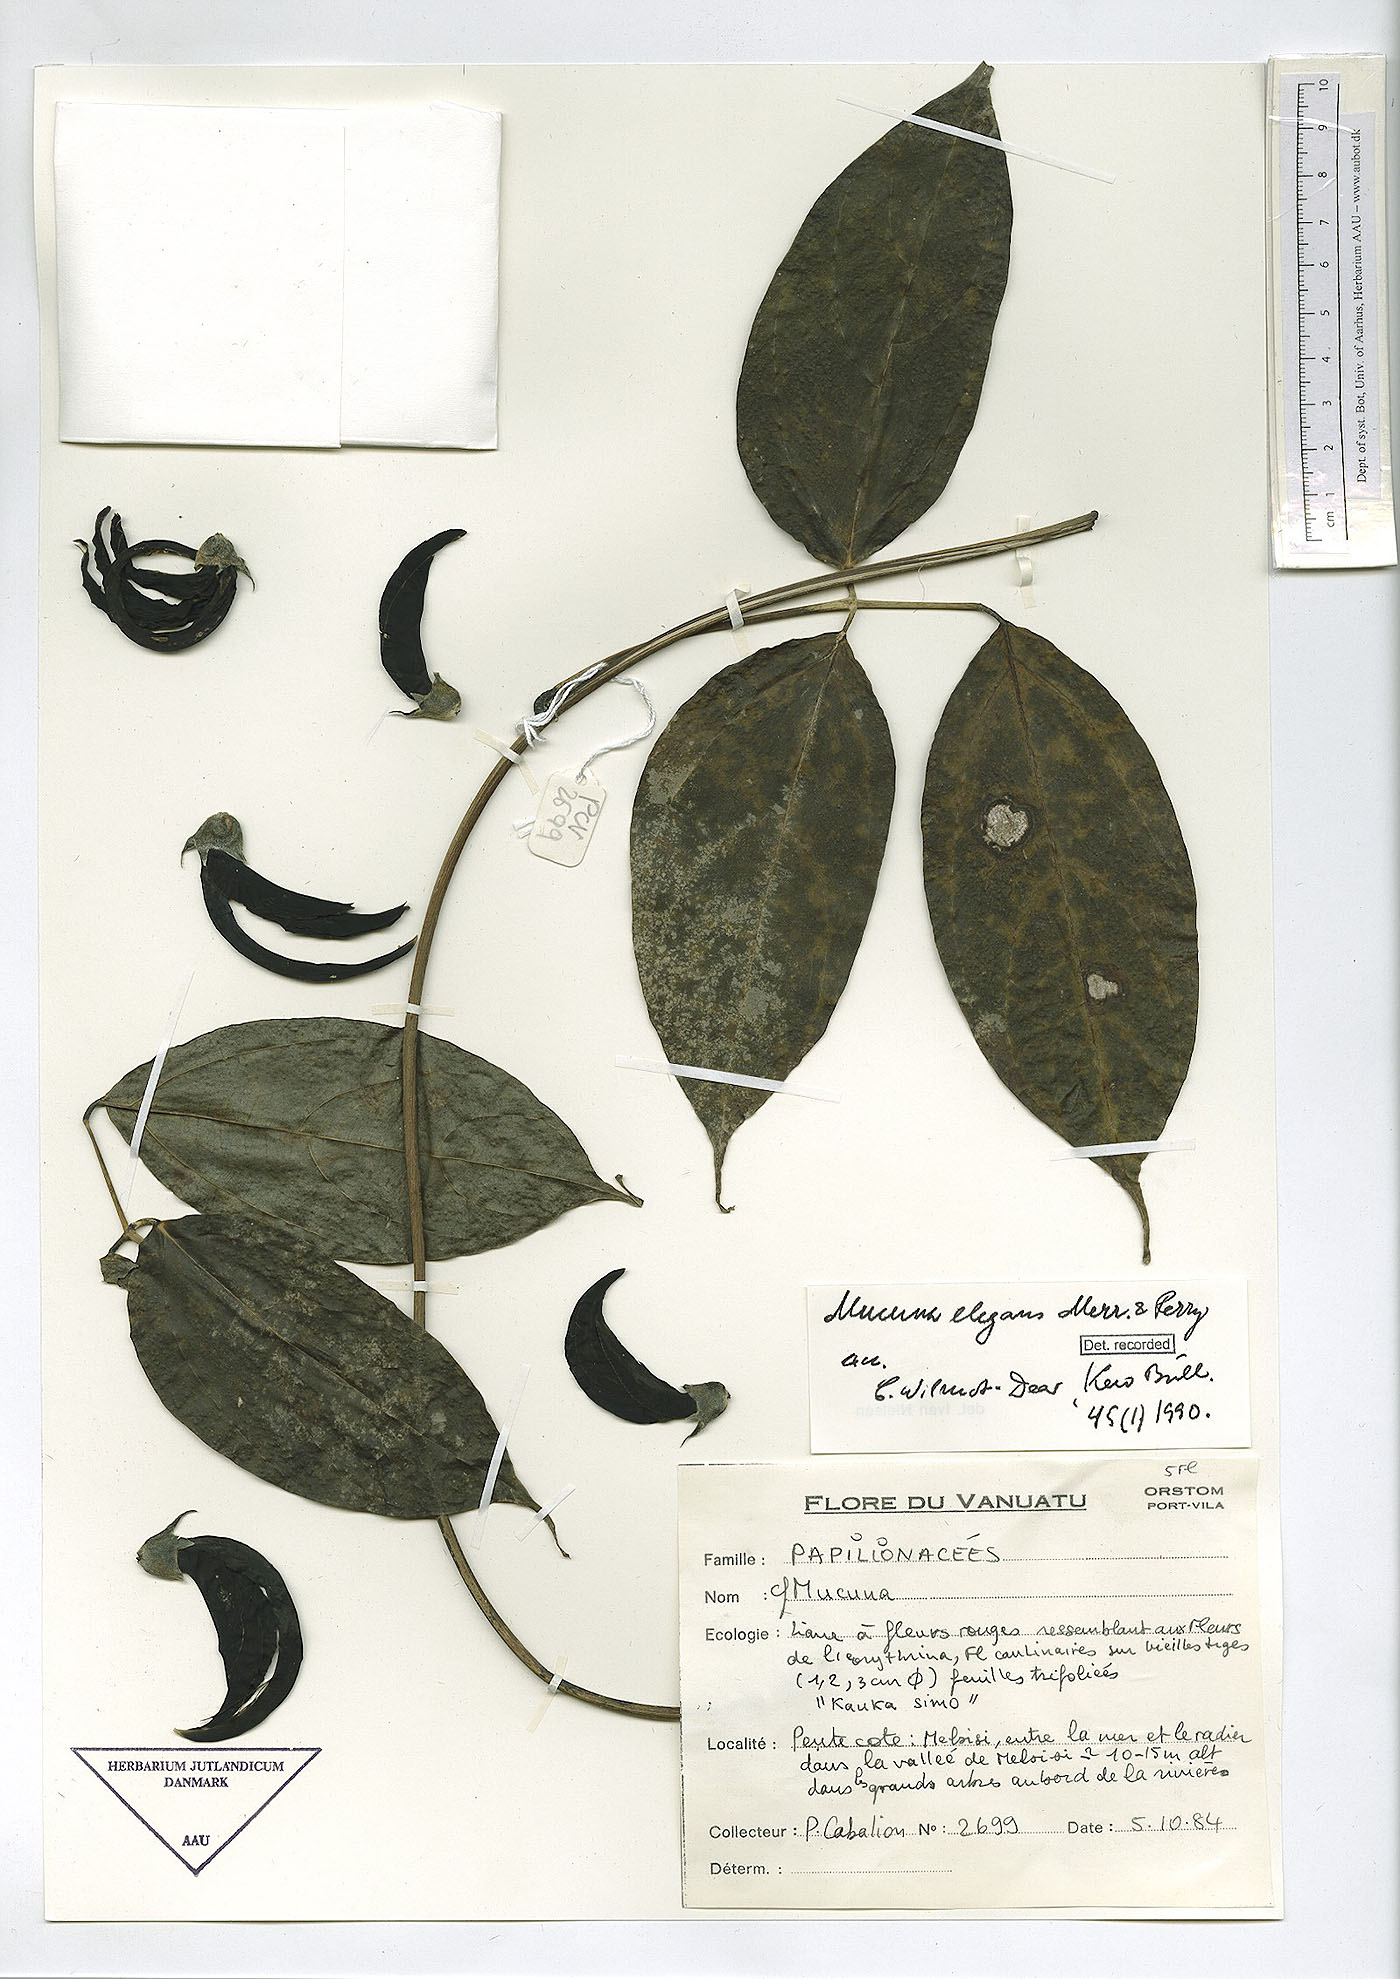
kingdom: Plantae
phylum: Tracheophyta
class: Magnoliopsida
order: Fabales
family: Fabaceae
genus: Mucuna
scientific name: Mucuna bennettii
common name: New guinea creeper
